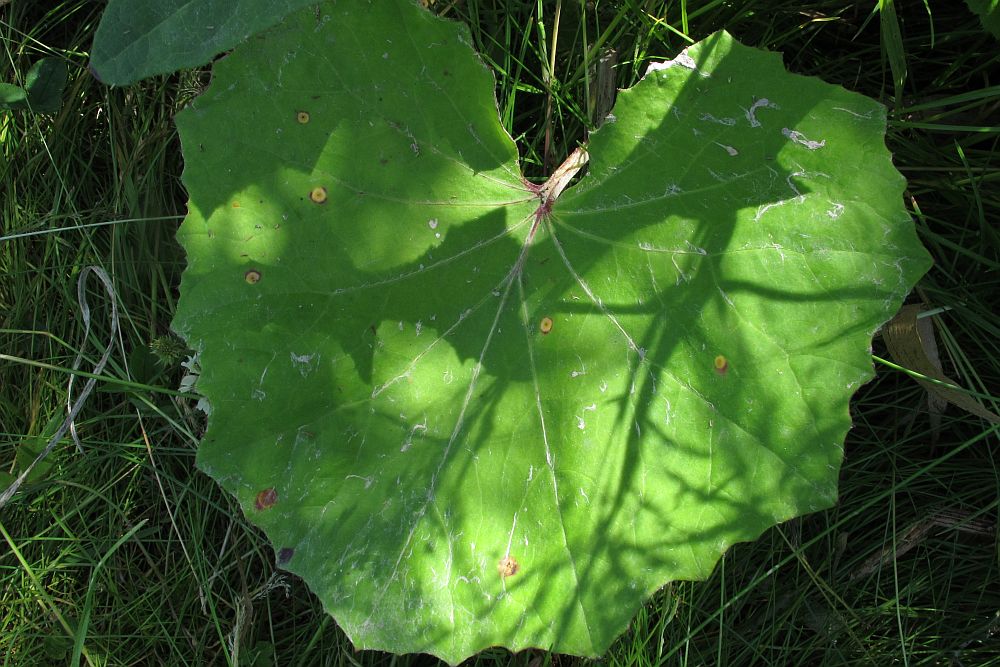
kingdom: Fungi
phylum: Basidiomycota
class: Pucciniomycetes
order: Pucciniales
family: Pucciniaceae
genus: Puccinia
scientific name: Puccinia poarum
